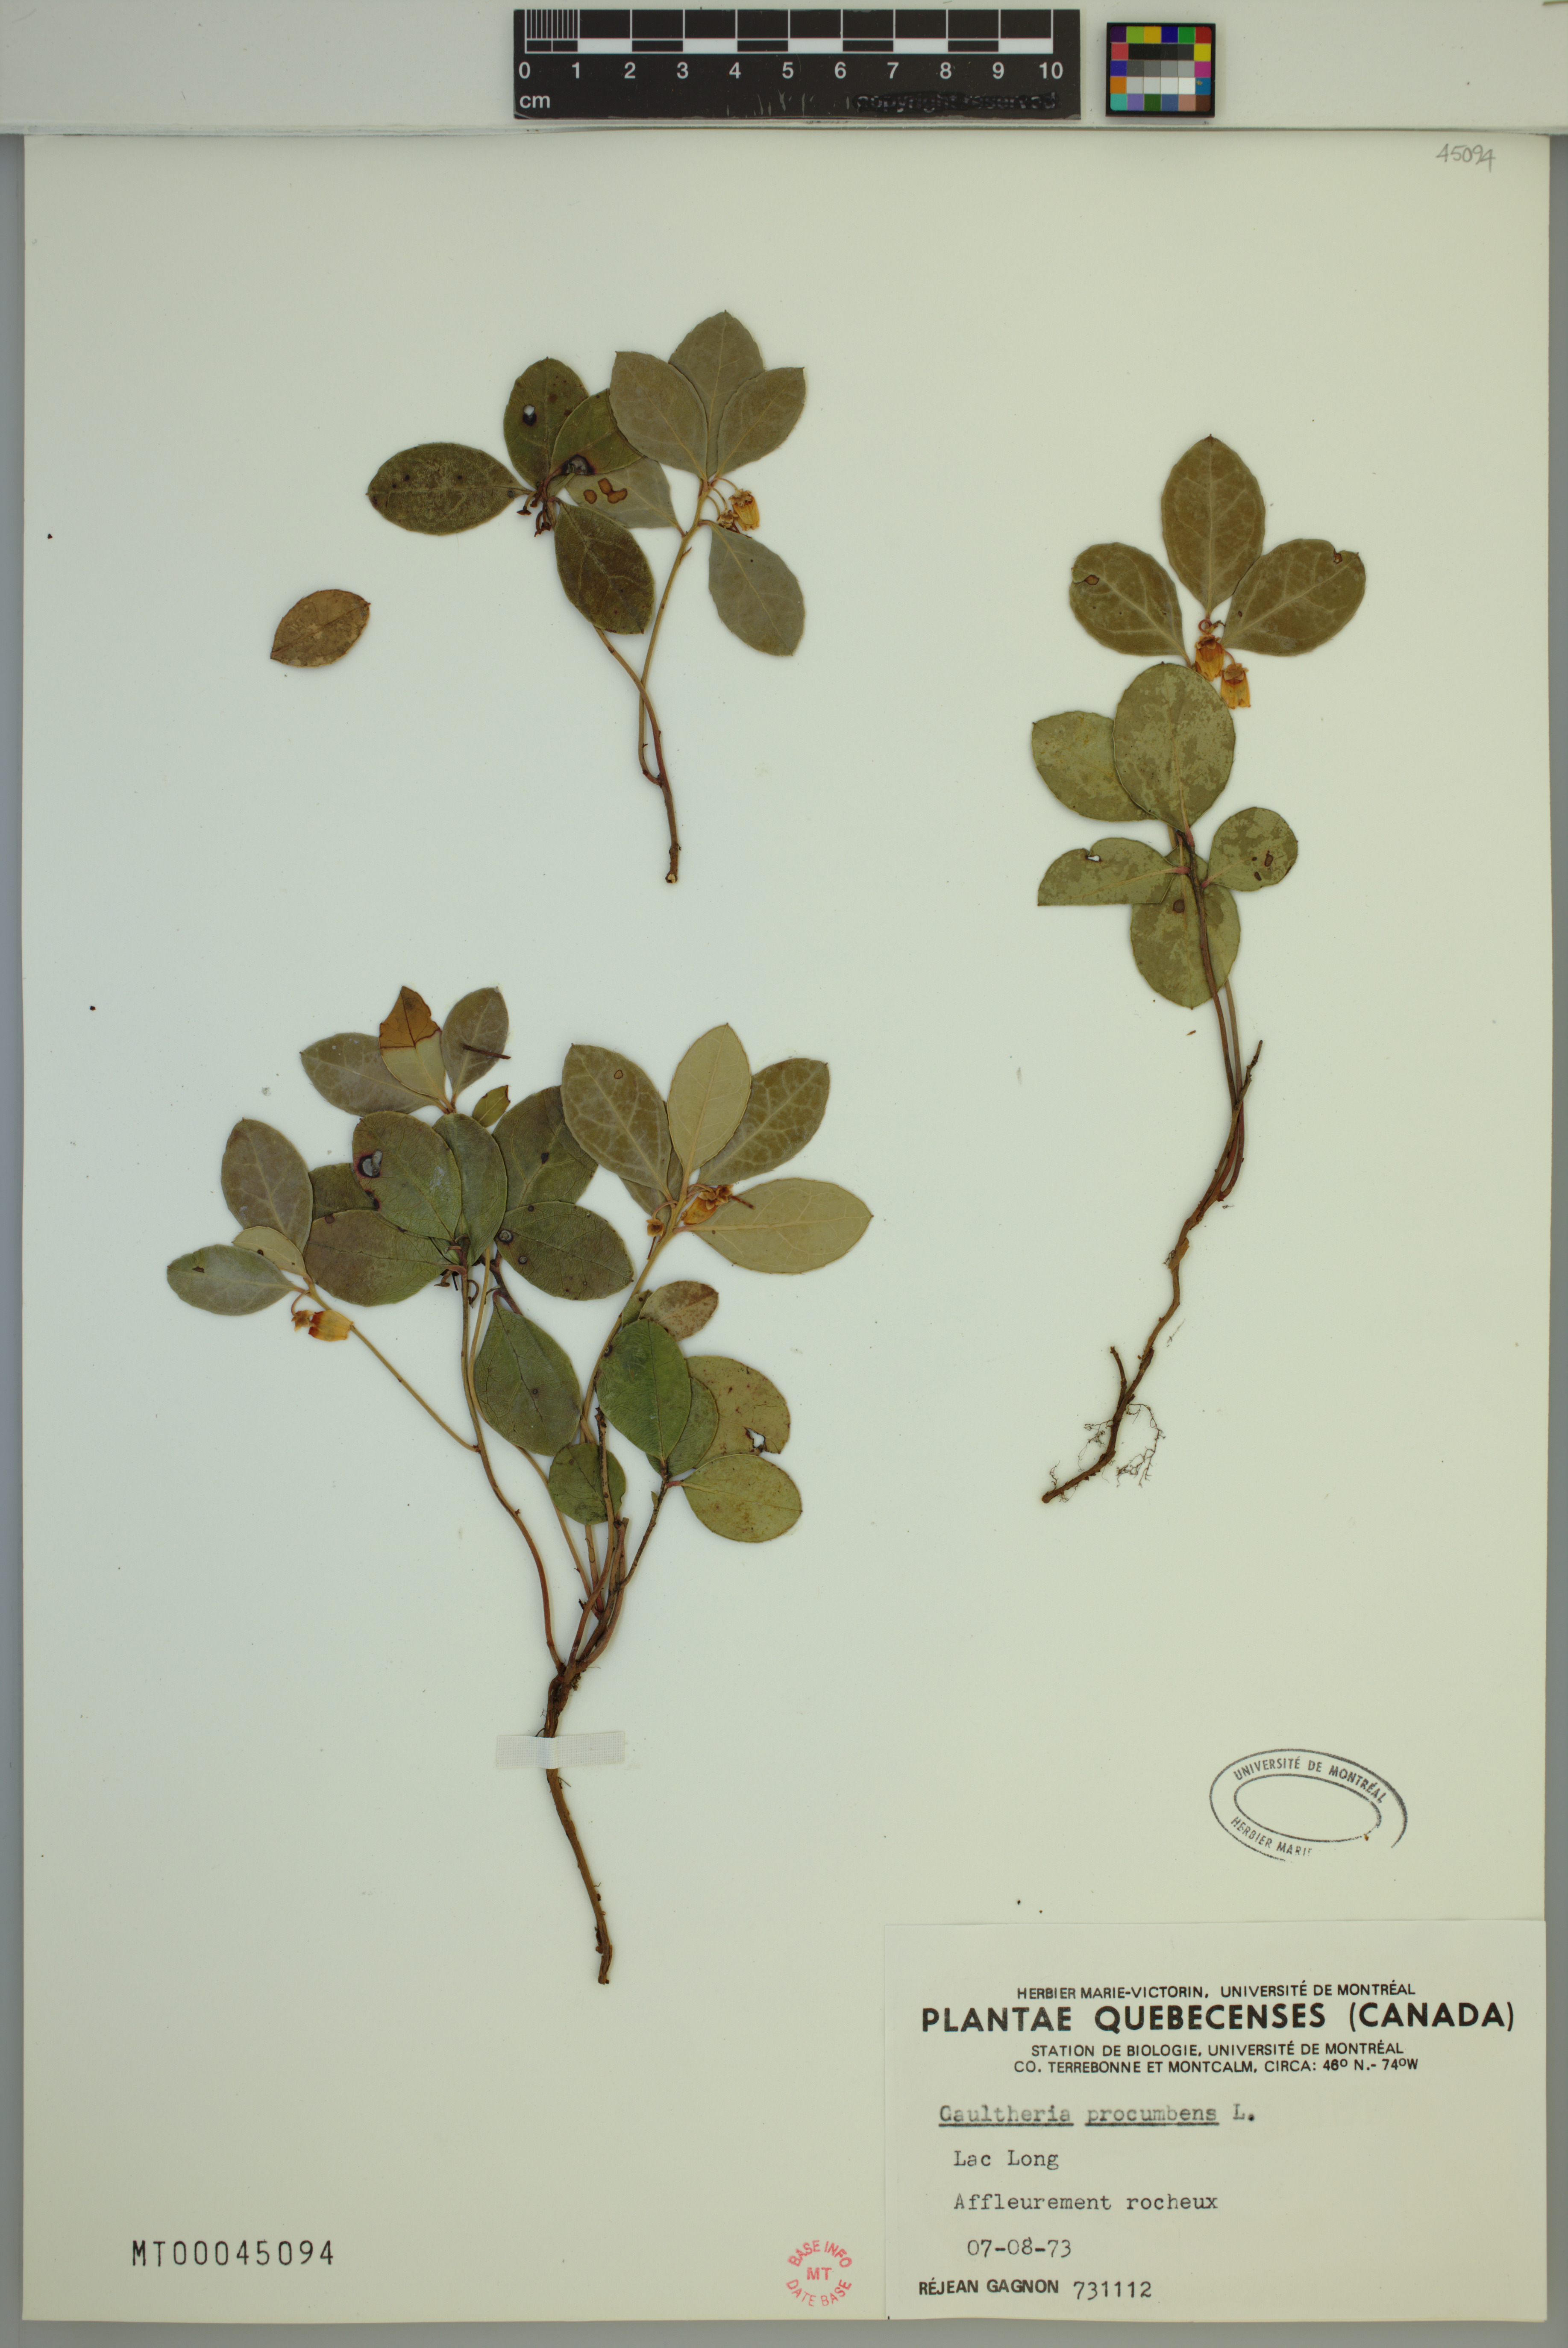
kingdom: Plantae
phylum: Tracheophyta
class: Magnoliopsida
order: Ericales
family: Ericaceae
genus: Gaultheria
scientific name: Gaultheria procumbens
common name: Checkerberry
